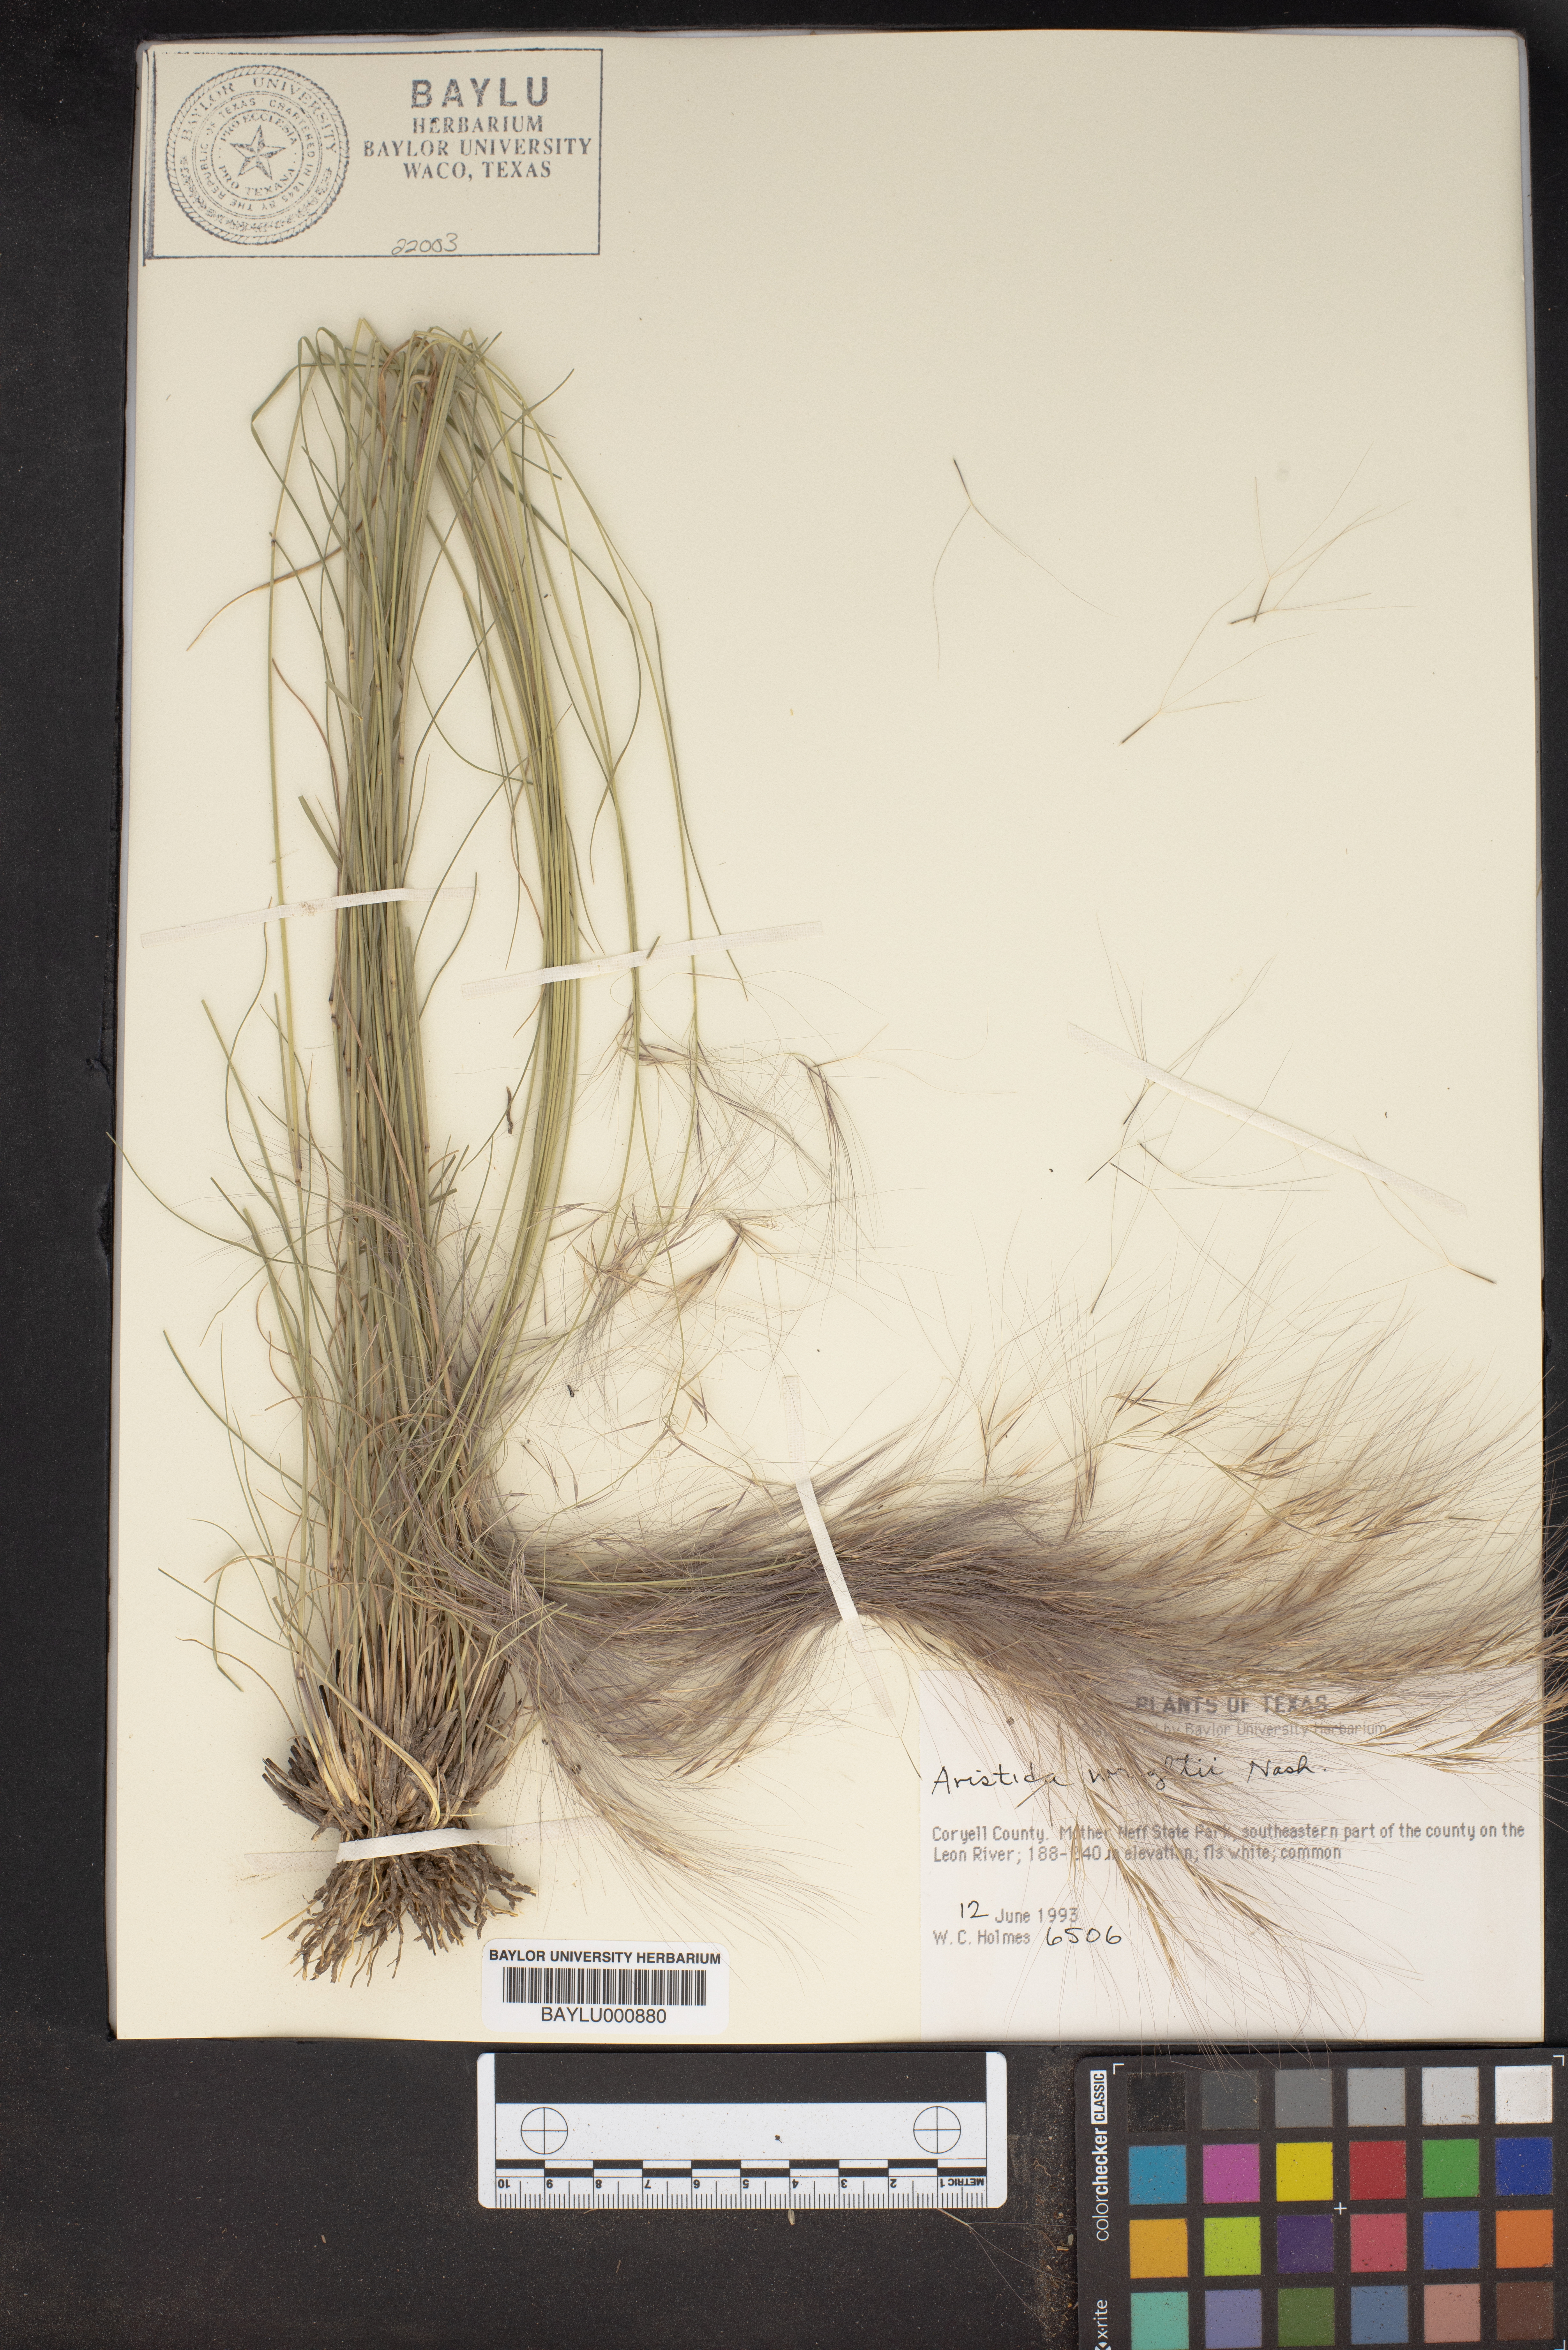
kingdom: Plantae
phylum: Tracheophyta
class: Liliopsida
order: Poales
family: Poaceae
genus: Aristida
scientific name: Aristida wrightii
